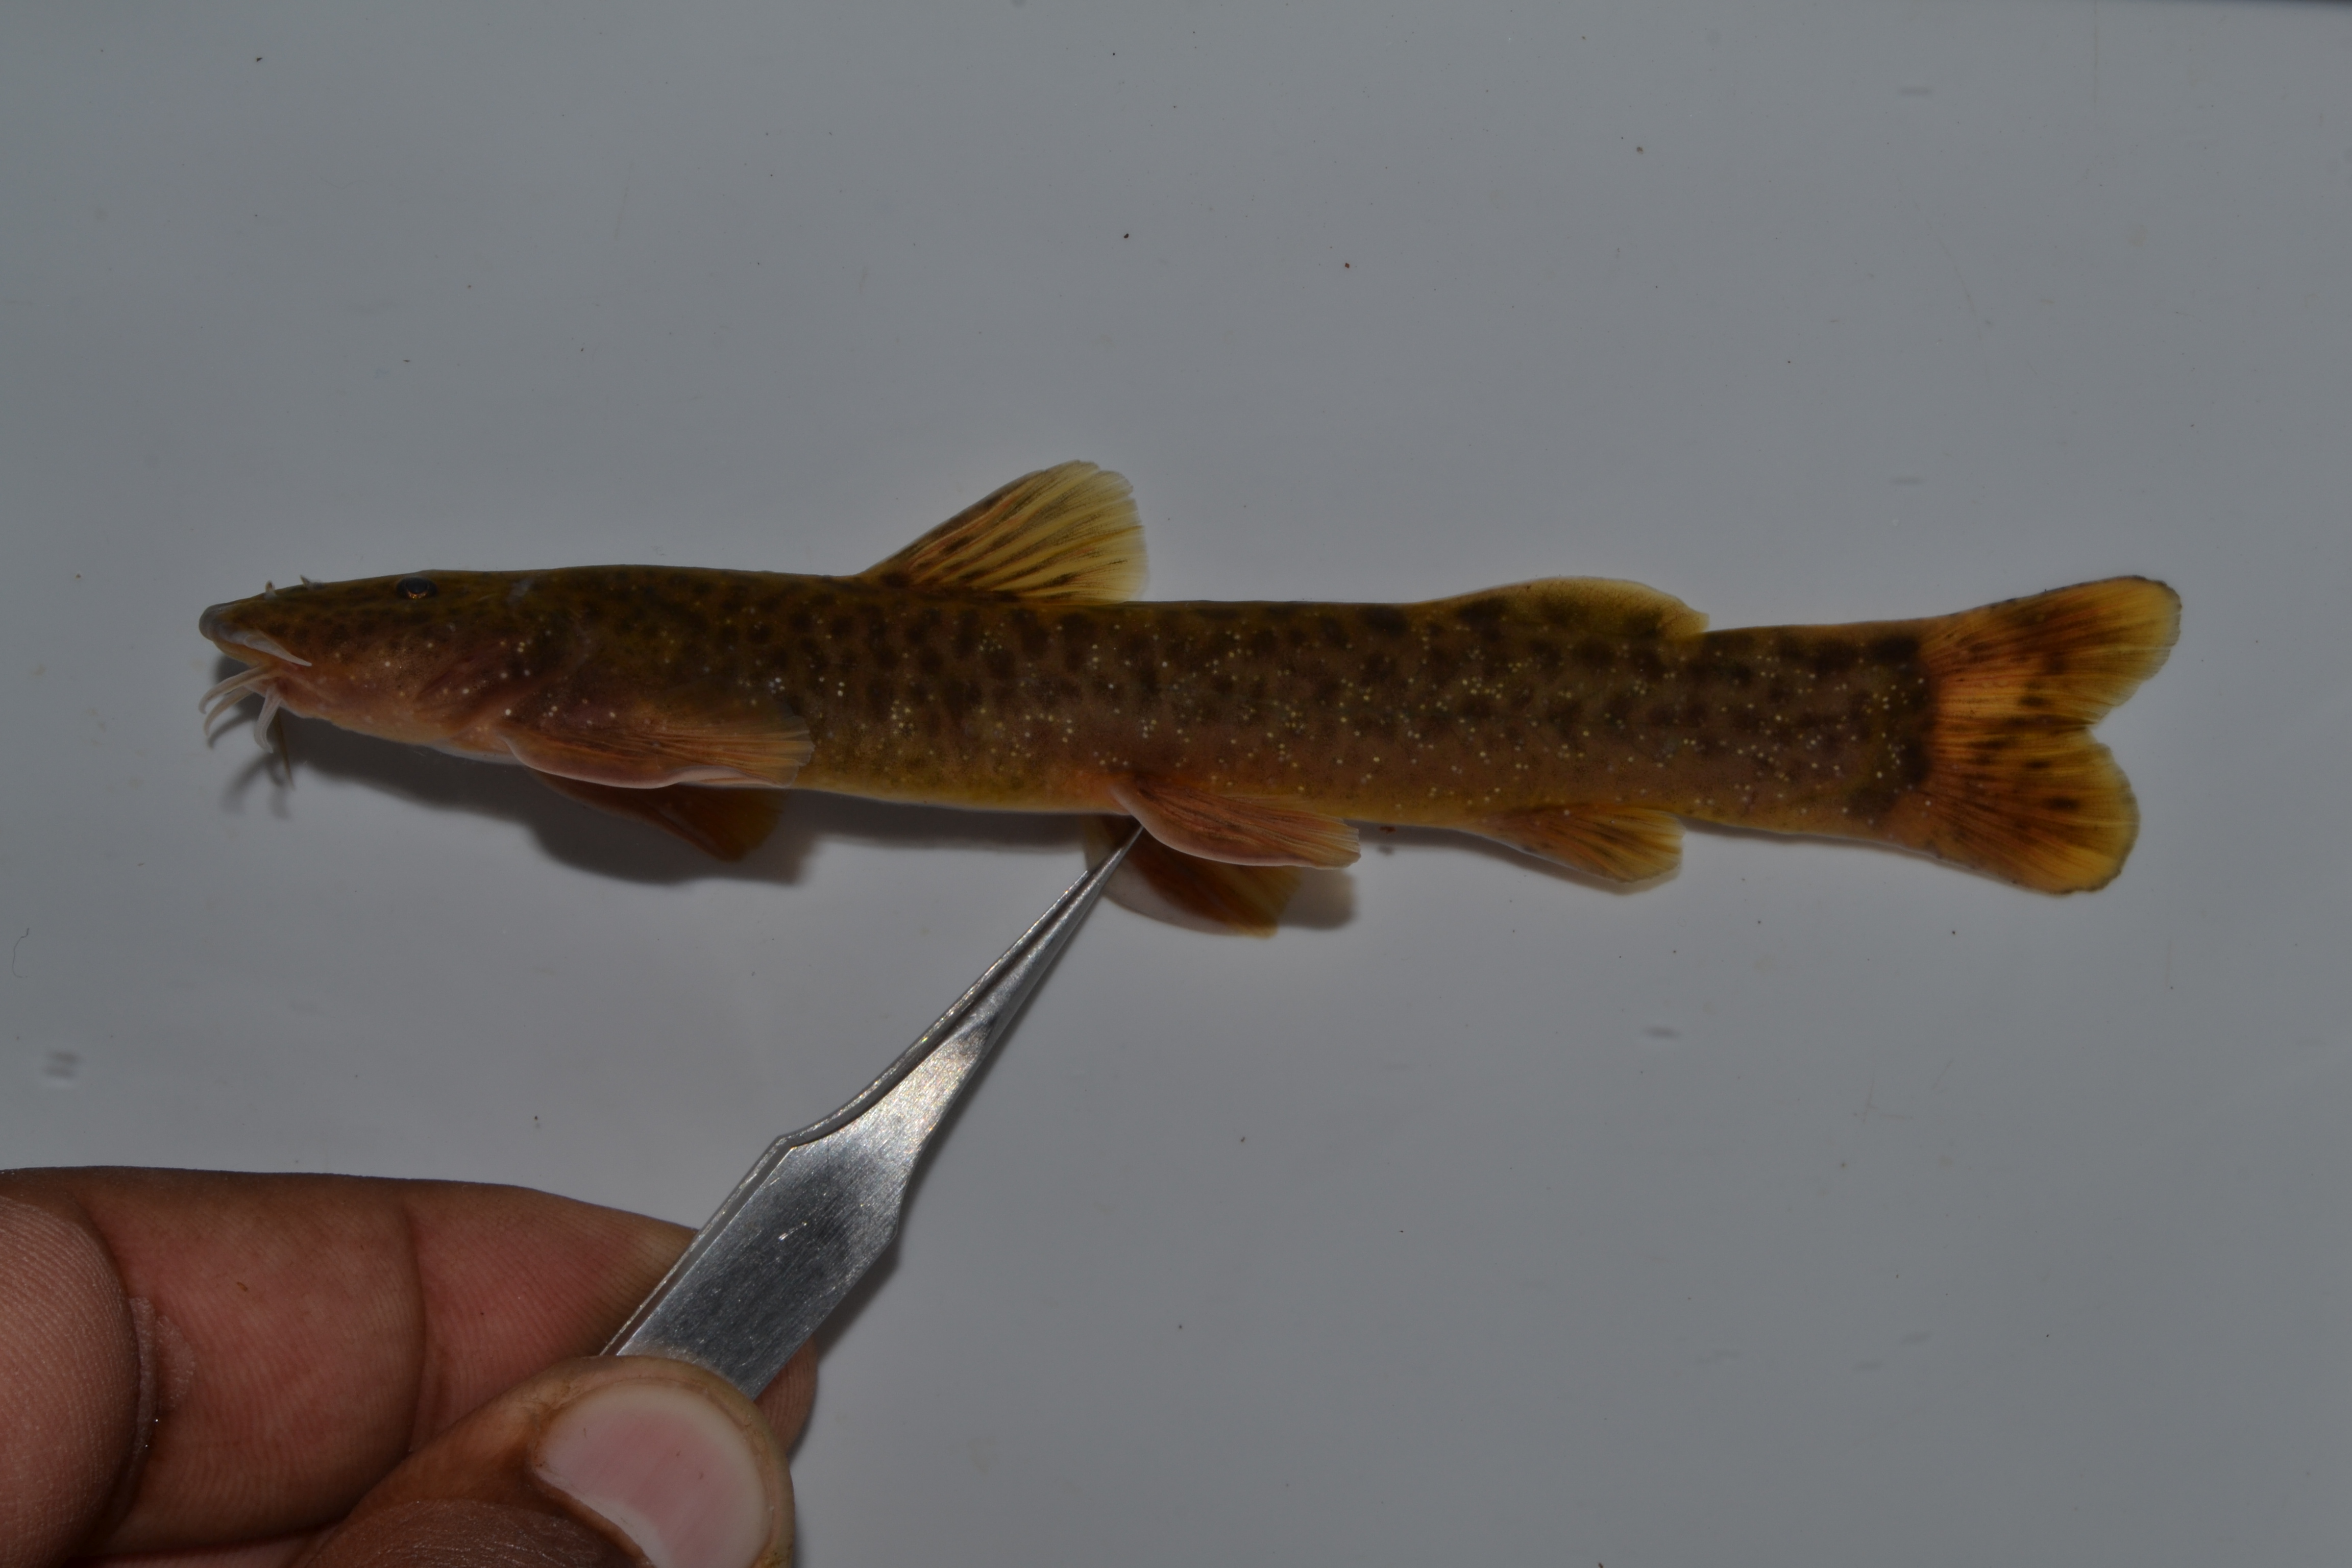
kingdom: Animalia
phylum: Chordata
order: Siluriformes
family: Amphiliidae
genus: Amphilius
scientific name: Amphilius zuluorum
